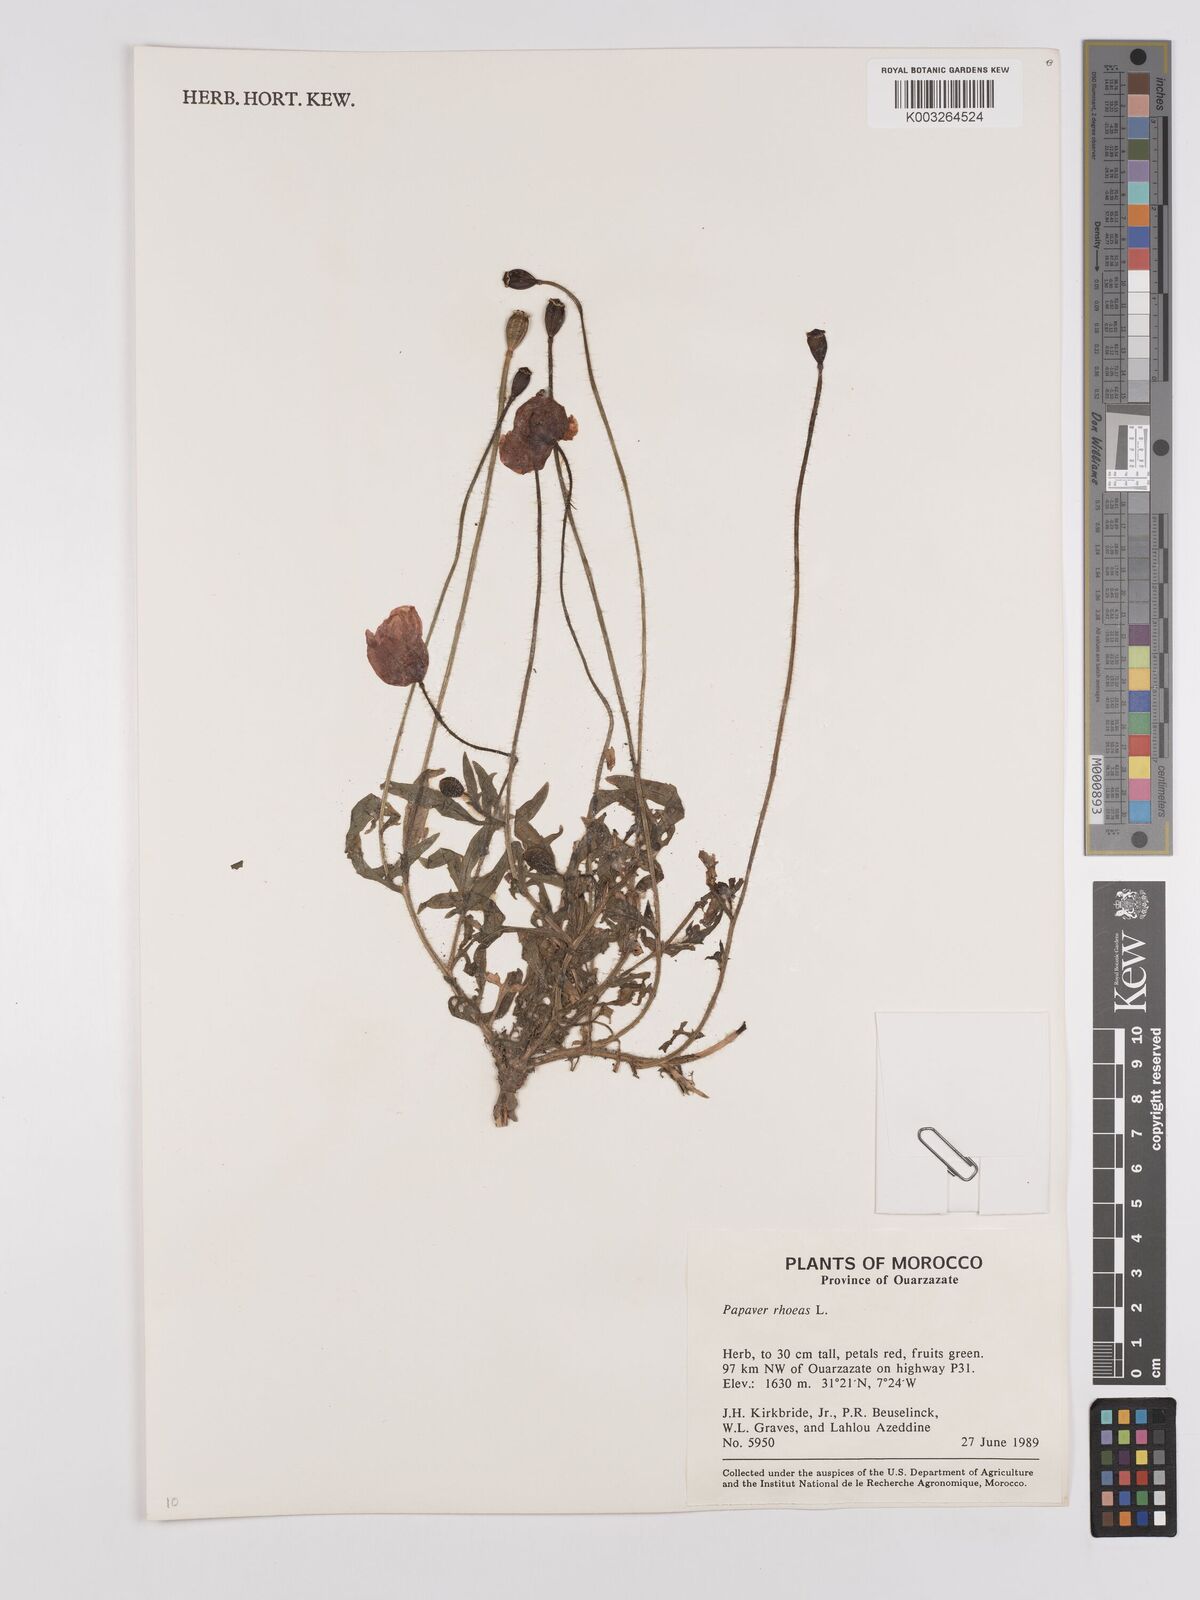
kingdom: Plantae
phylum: Tracheophyta
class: Magnoliopsida
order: Ranunculales
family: Papaveraceae
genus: Papaver
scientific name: Papaver rhoeas
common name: Corn poppy
